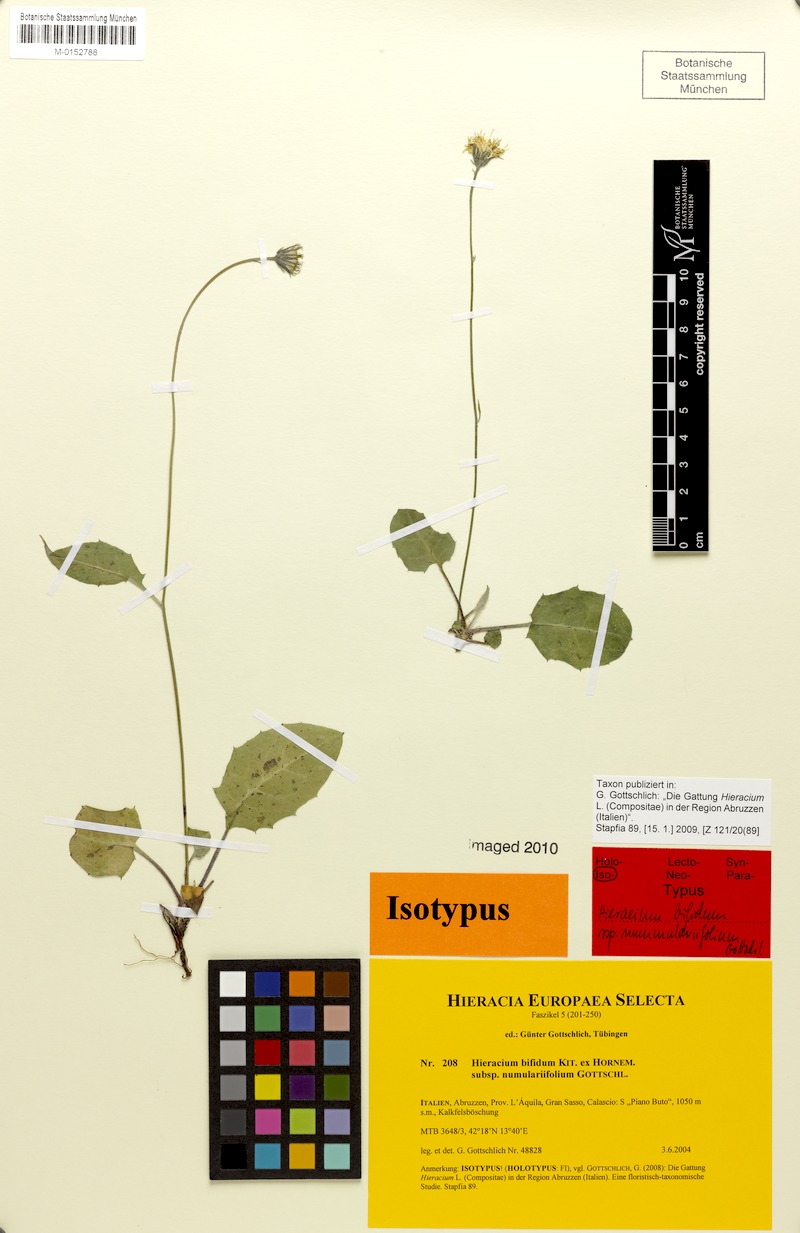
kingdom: Plantae
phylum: Tracheophyta
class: Magnoliopsida
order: Asterales
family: Asteraceae
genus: Hieracium
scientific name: Hieracium bifidum
